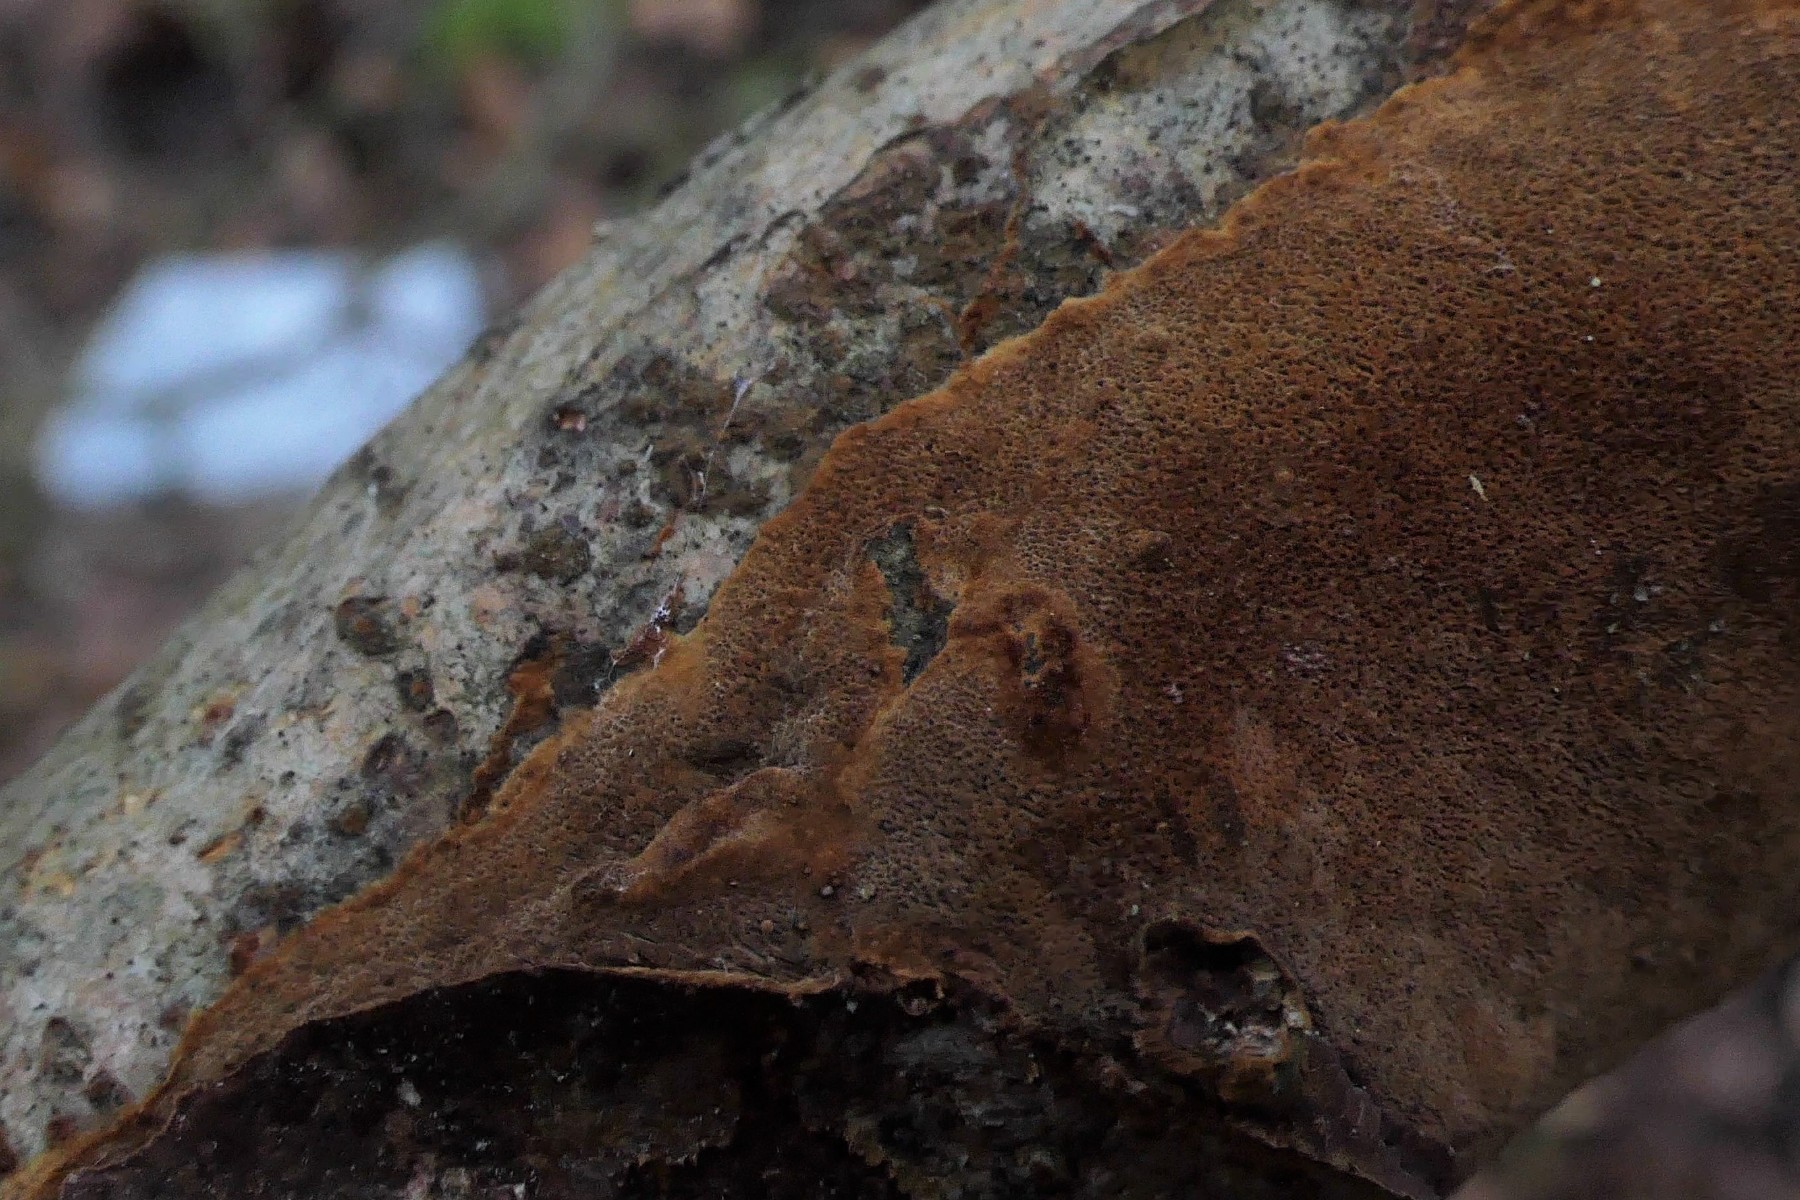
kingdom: Fungi
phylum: Basidiomycota
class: Agaricomycetes
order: Hymenochaetales
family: Hymenochaetaceae
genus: Fuscoporia
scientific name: Fuscoporia ferrea
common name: skorpe-ildporesvamp
